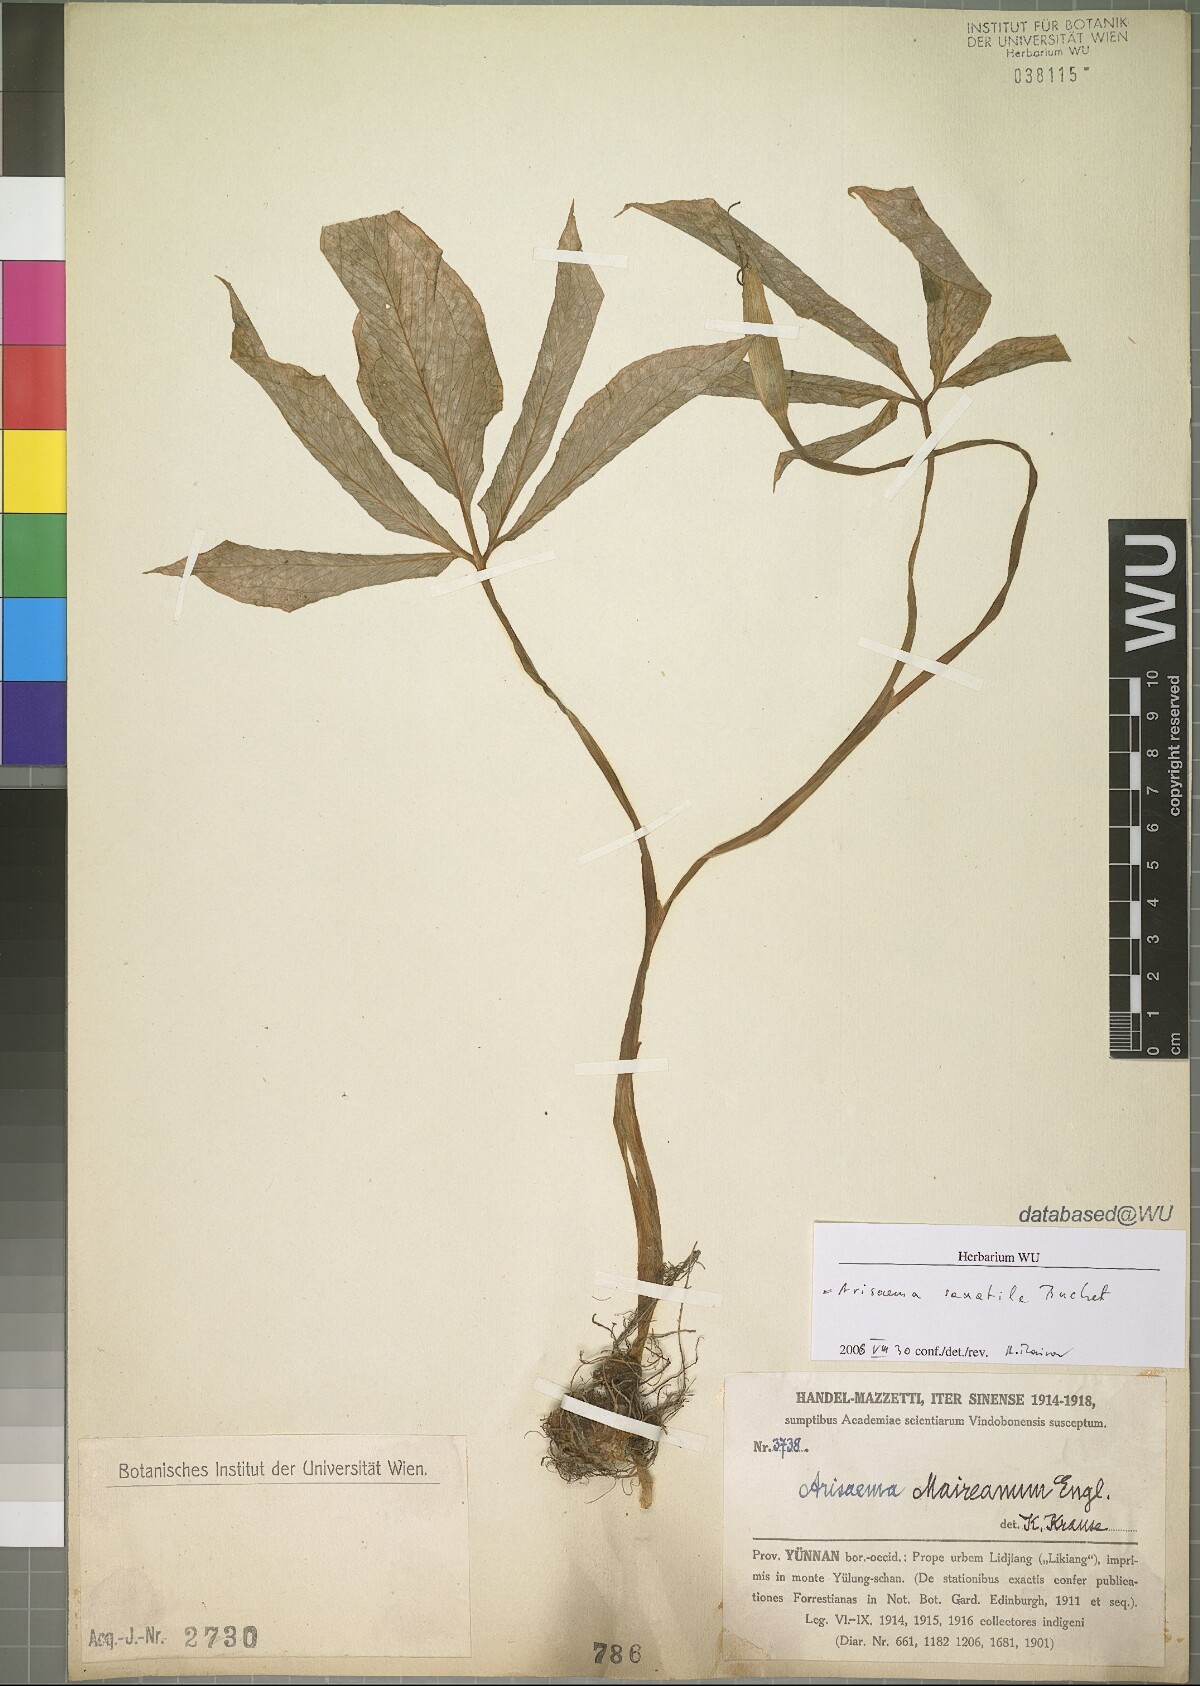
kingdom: Plantae
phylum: Tracheophyta
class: Liliopsida
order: Alismatales
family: Araceae
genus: Arisaema
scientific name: Arisaema saxatile
